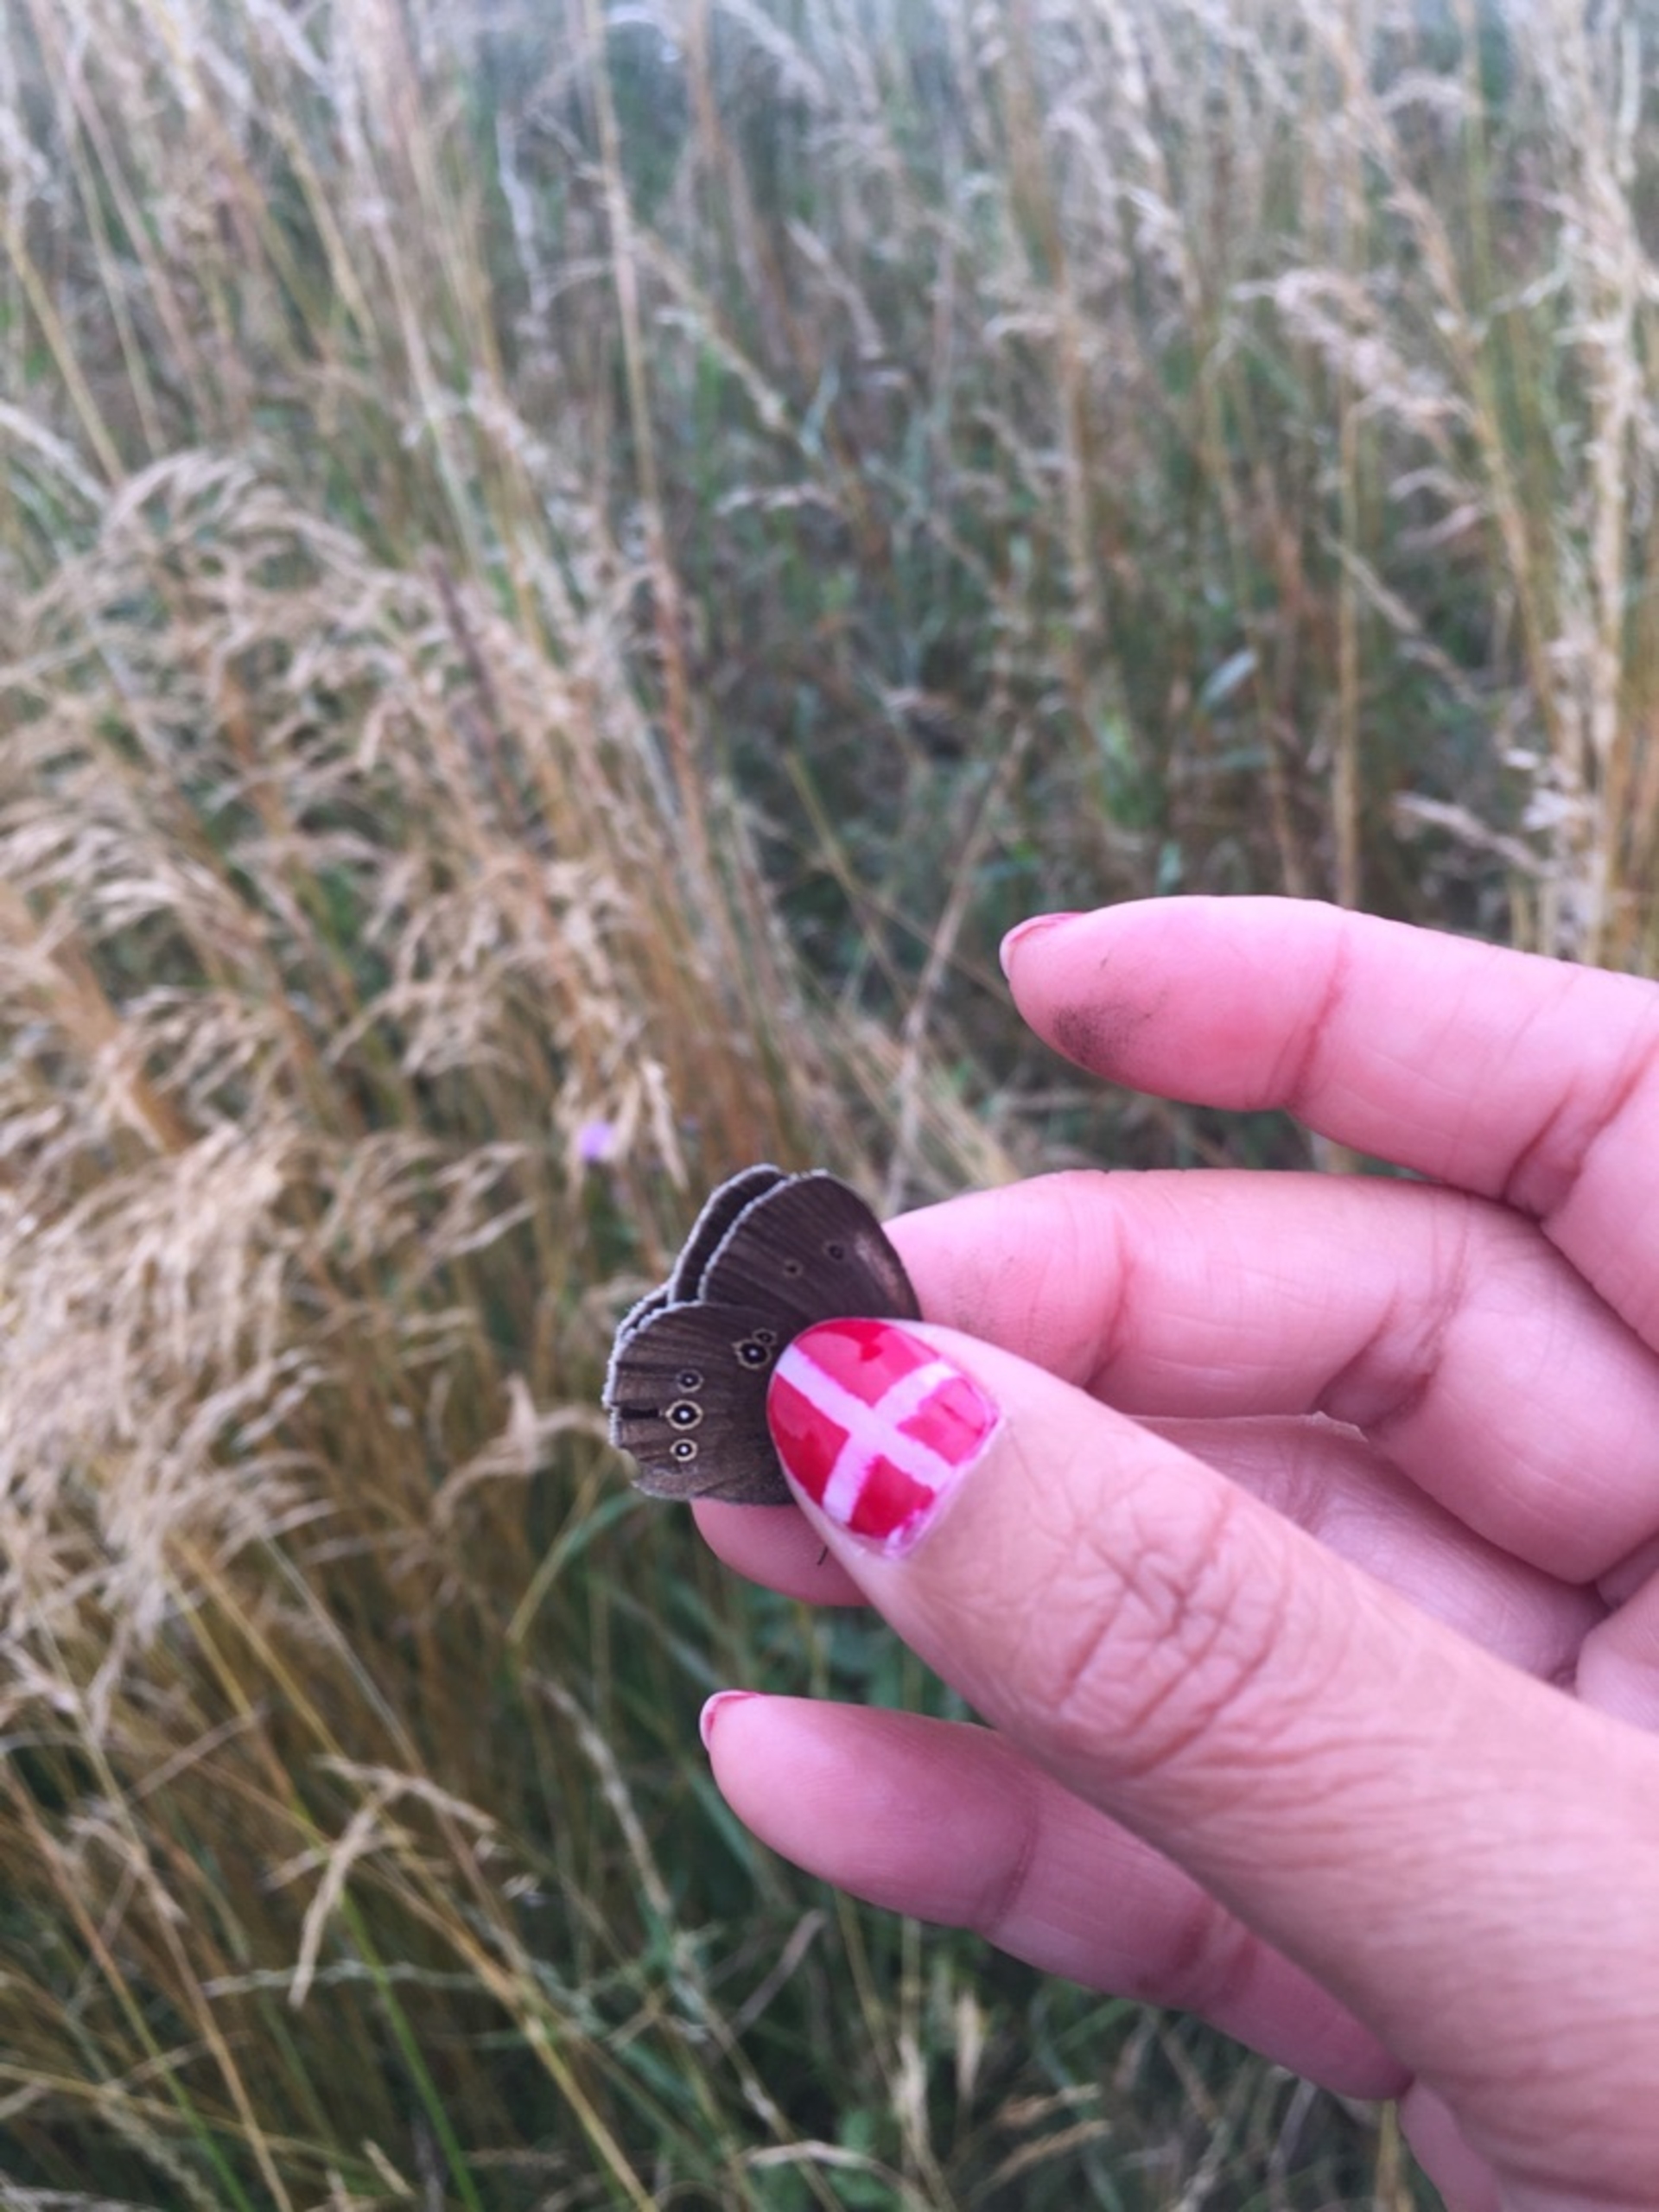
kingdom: Animalia
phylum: Arthropoda
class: Insecta
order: Lepidoptera
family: Nymphalidae
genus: Aphantopus
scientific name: Aphantopus hyperantus
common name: Engrandøje
